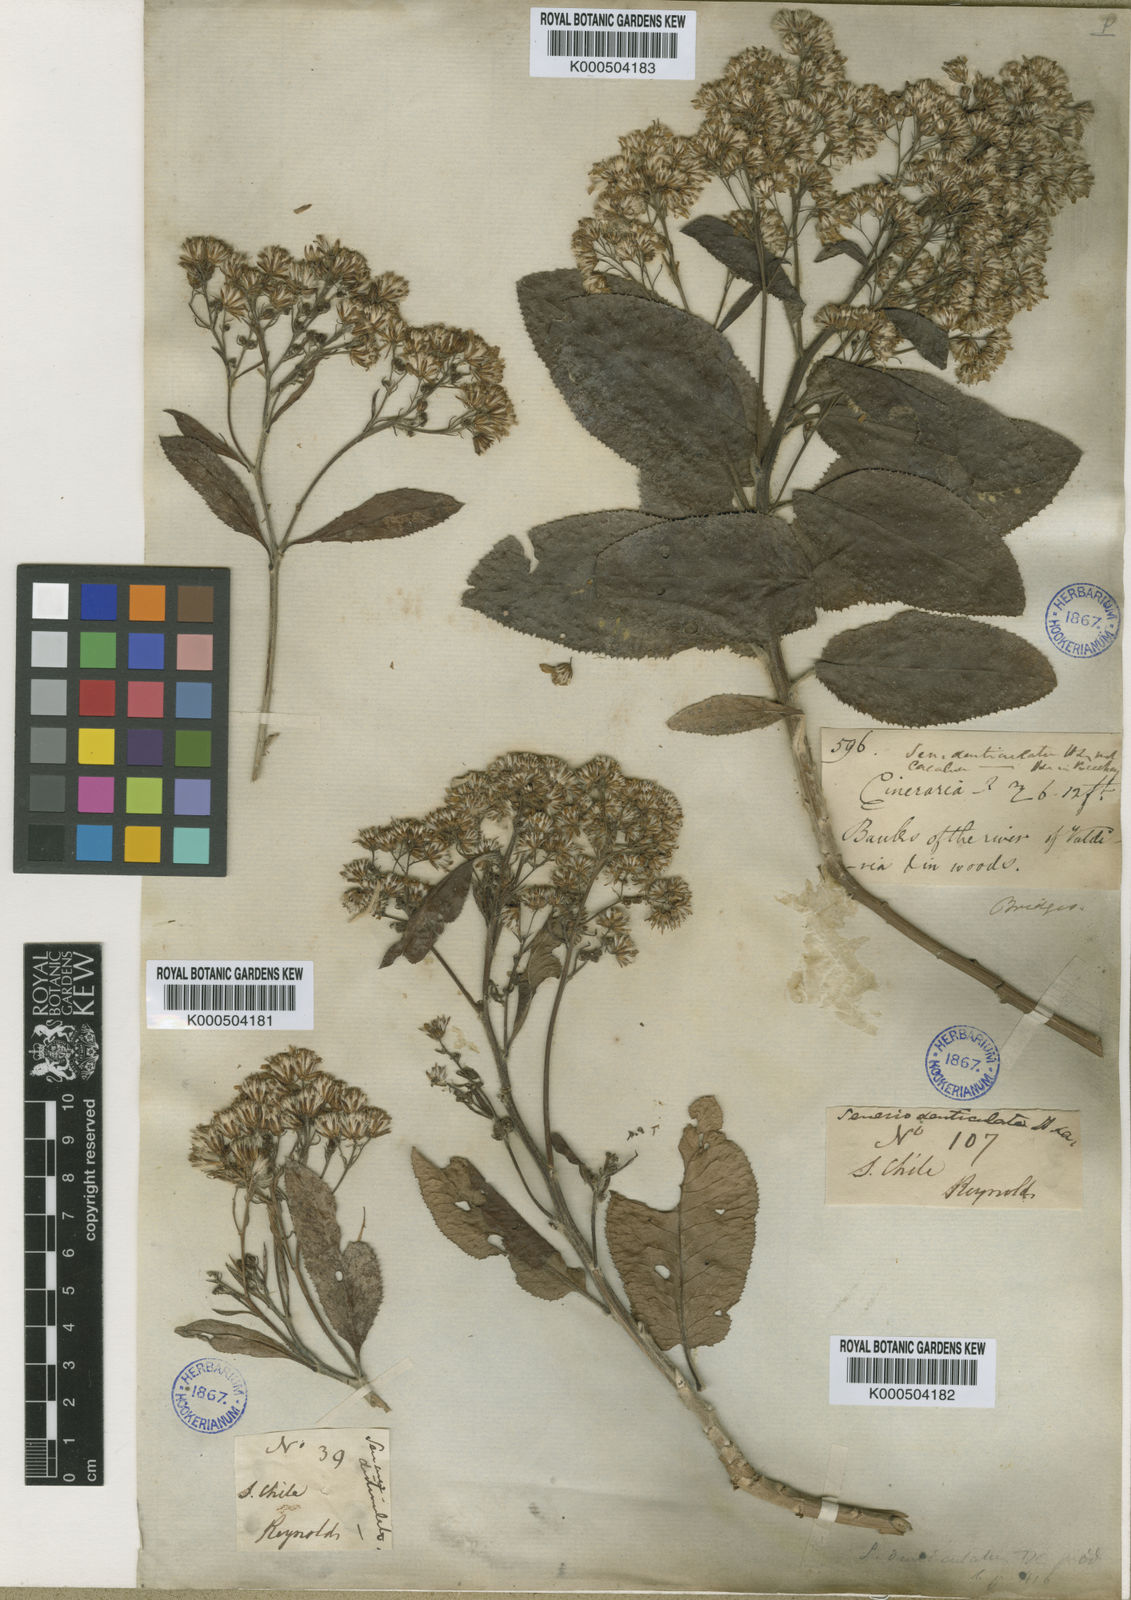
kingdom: Plantae
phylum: Tracheophyta
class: Magnoliopsida
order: Asterales
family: Asteraceae
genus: Acrisione
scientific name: Acrisione denticulata
